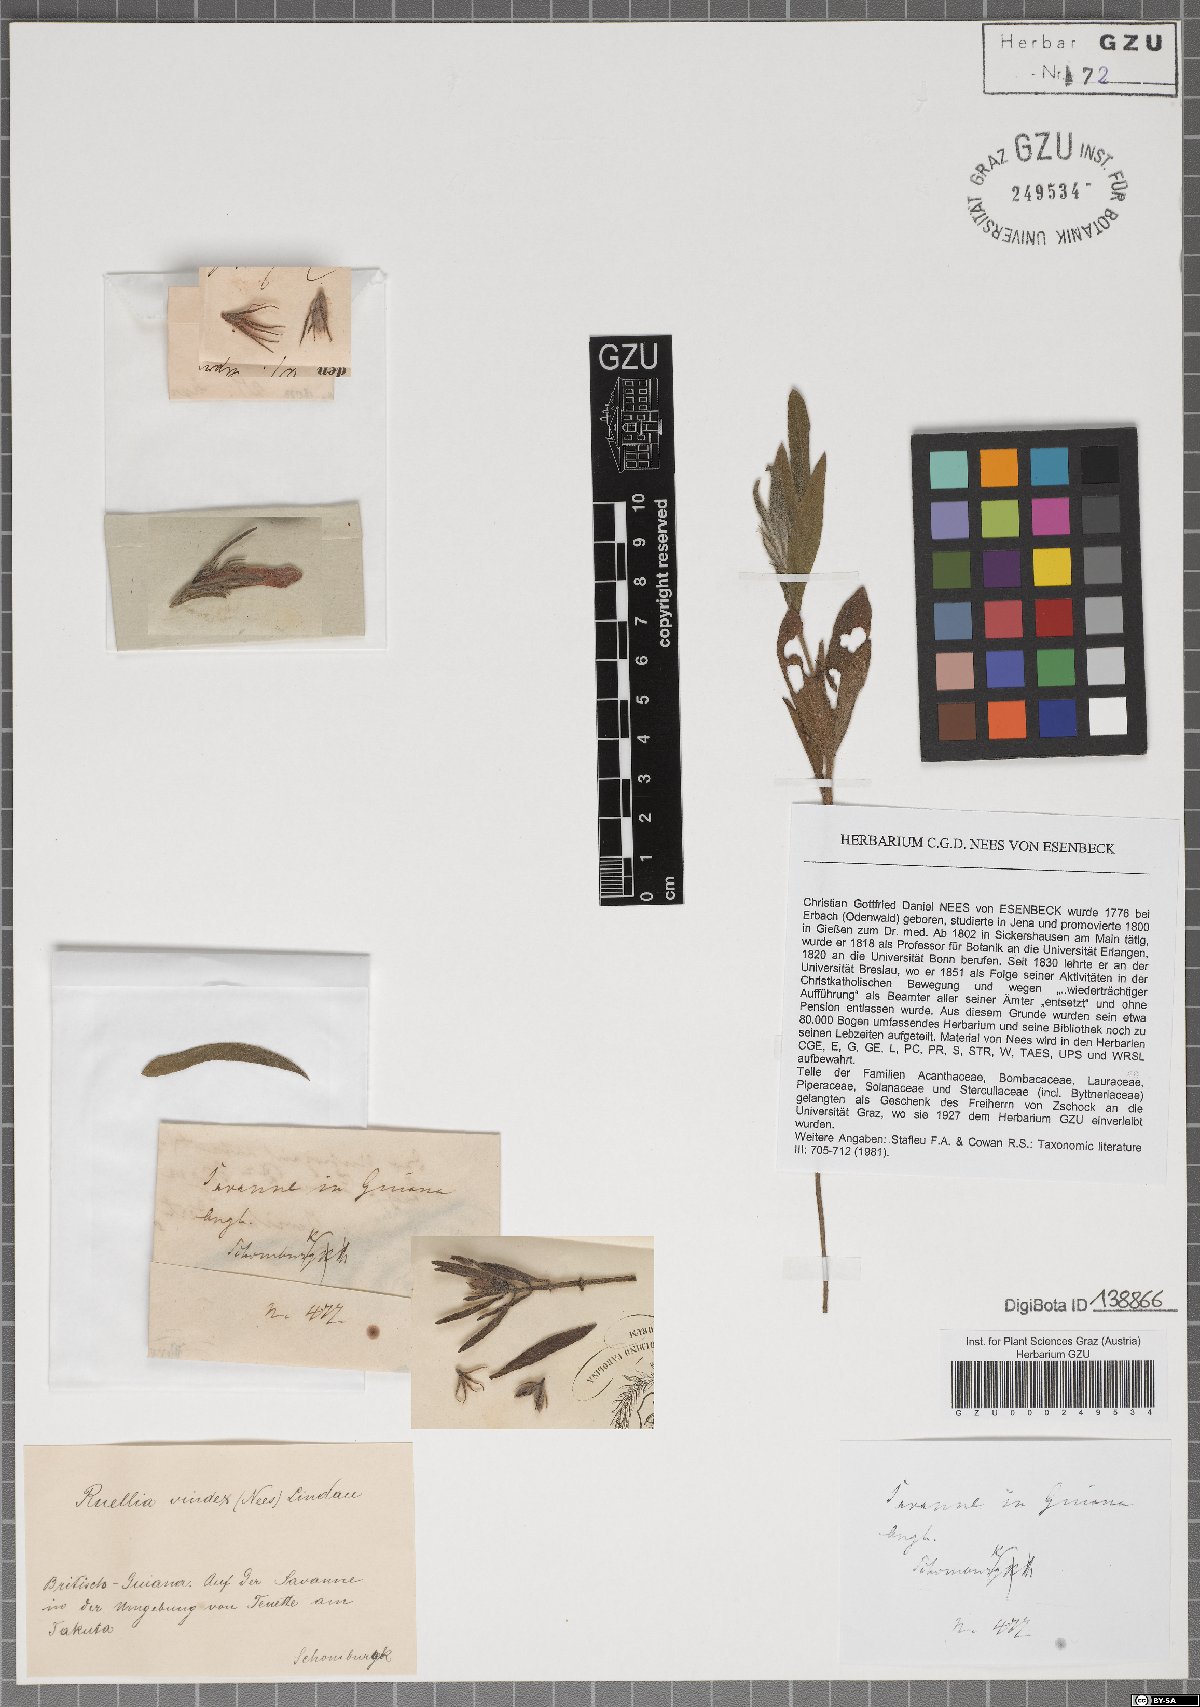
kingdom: Plantae
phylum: Tracheophyta
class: Magnoliopsida
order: Lamiales
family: Acanthaceae
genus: Ruellia
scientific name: Ruellia geminiflora
